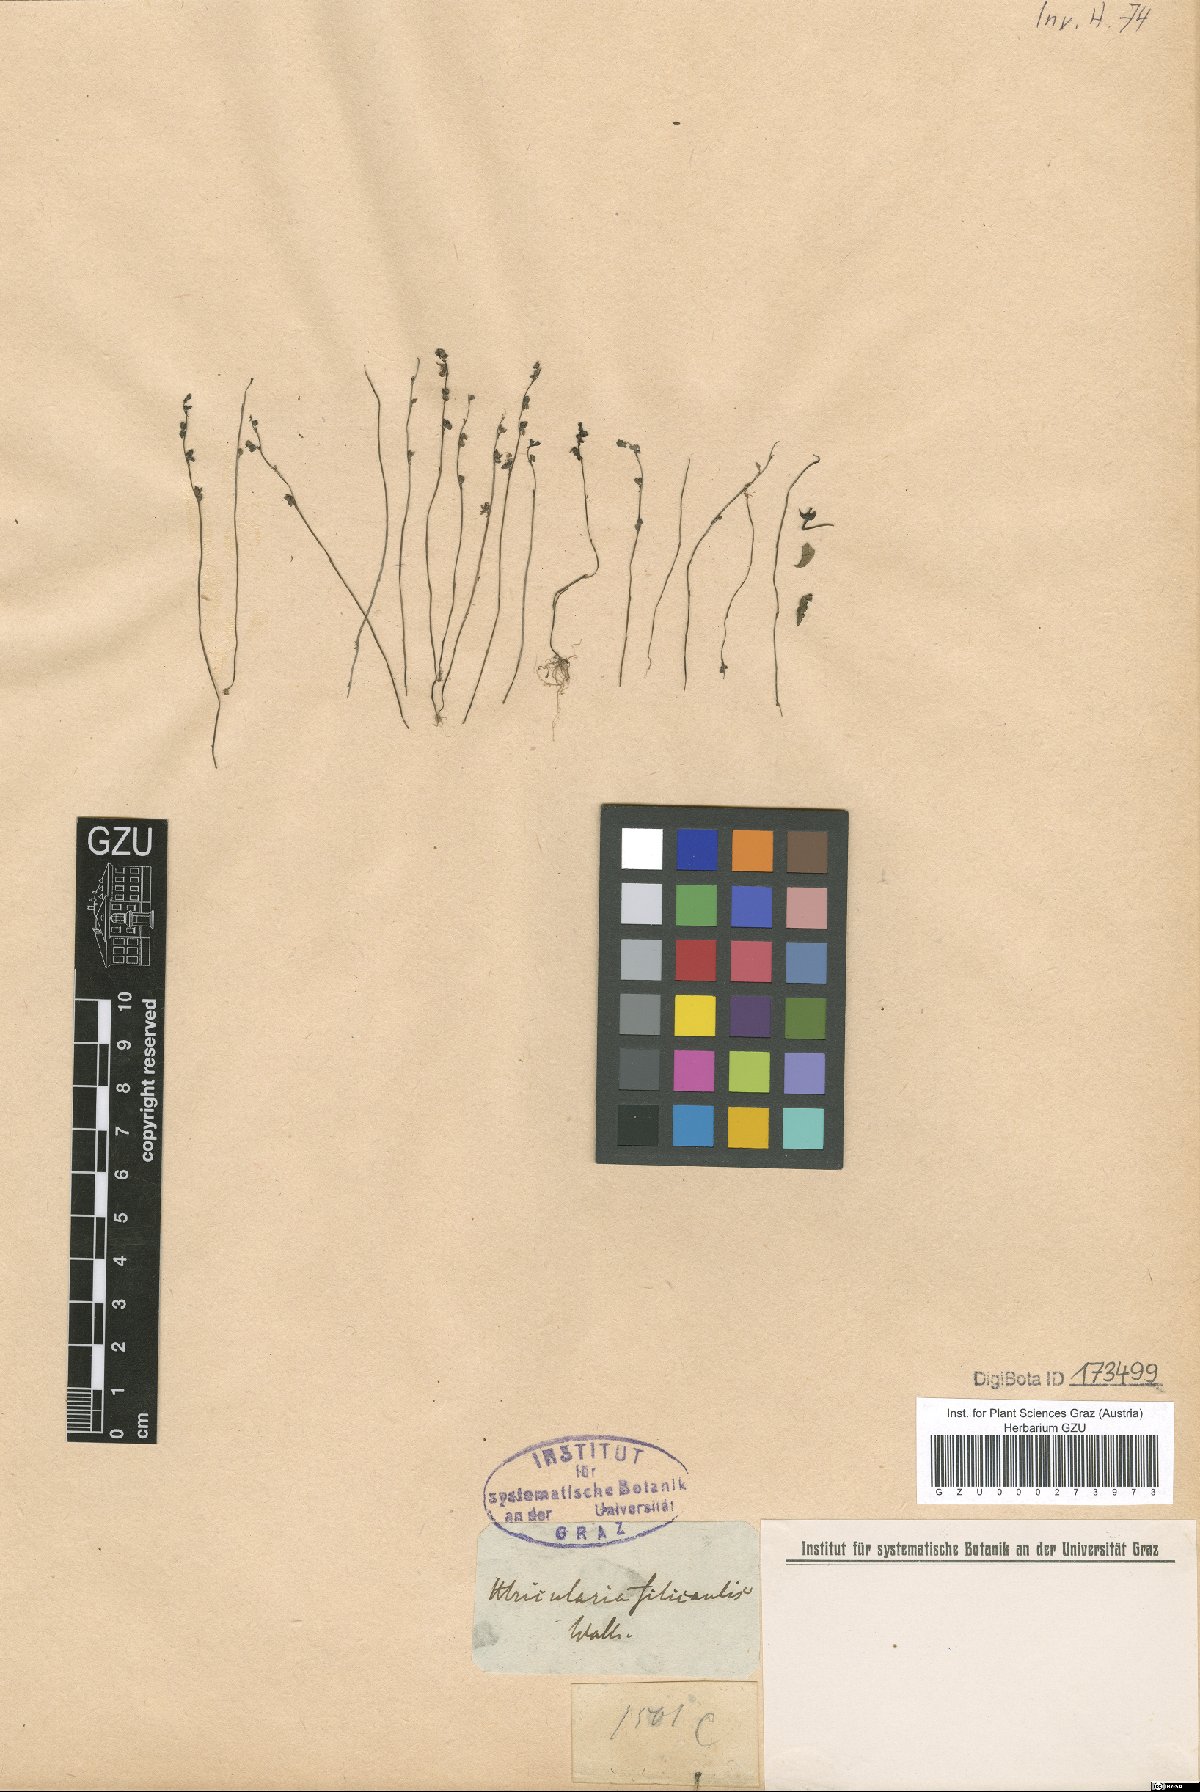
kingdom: Plantae
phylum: Tracheophyta
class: Magnoliopsida
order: Lamiales
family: Lentibulariaceae
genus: Utricularia
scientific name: Utricularia caerulea
